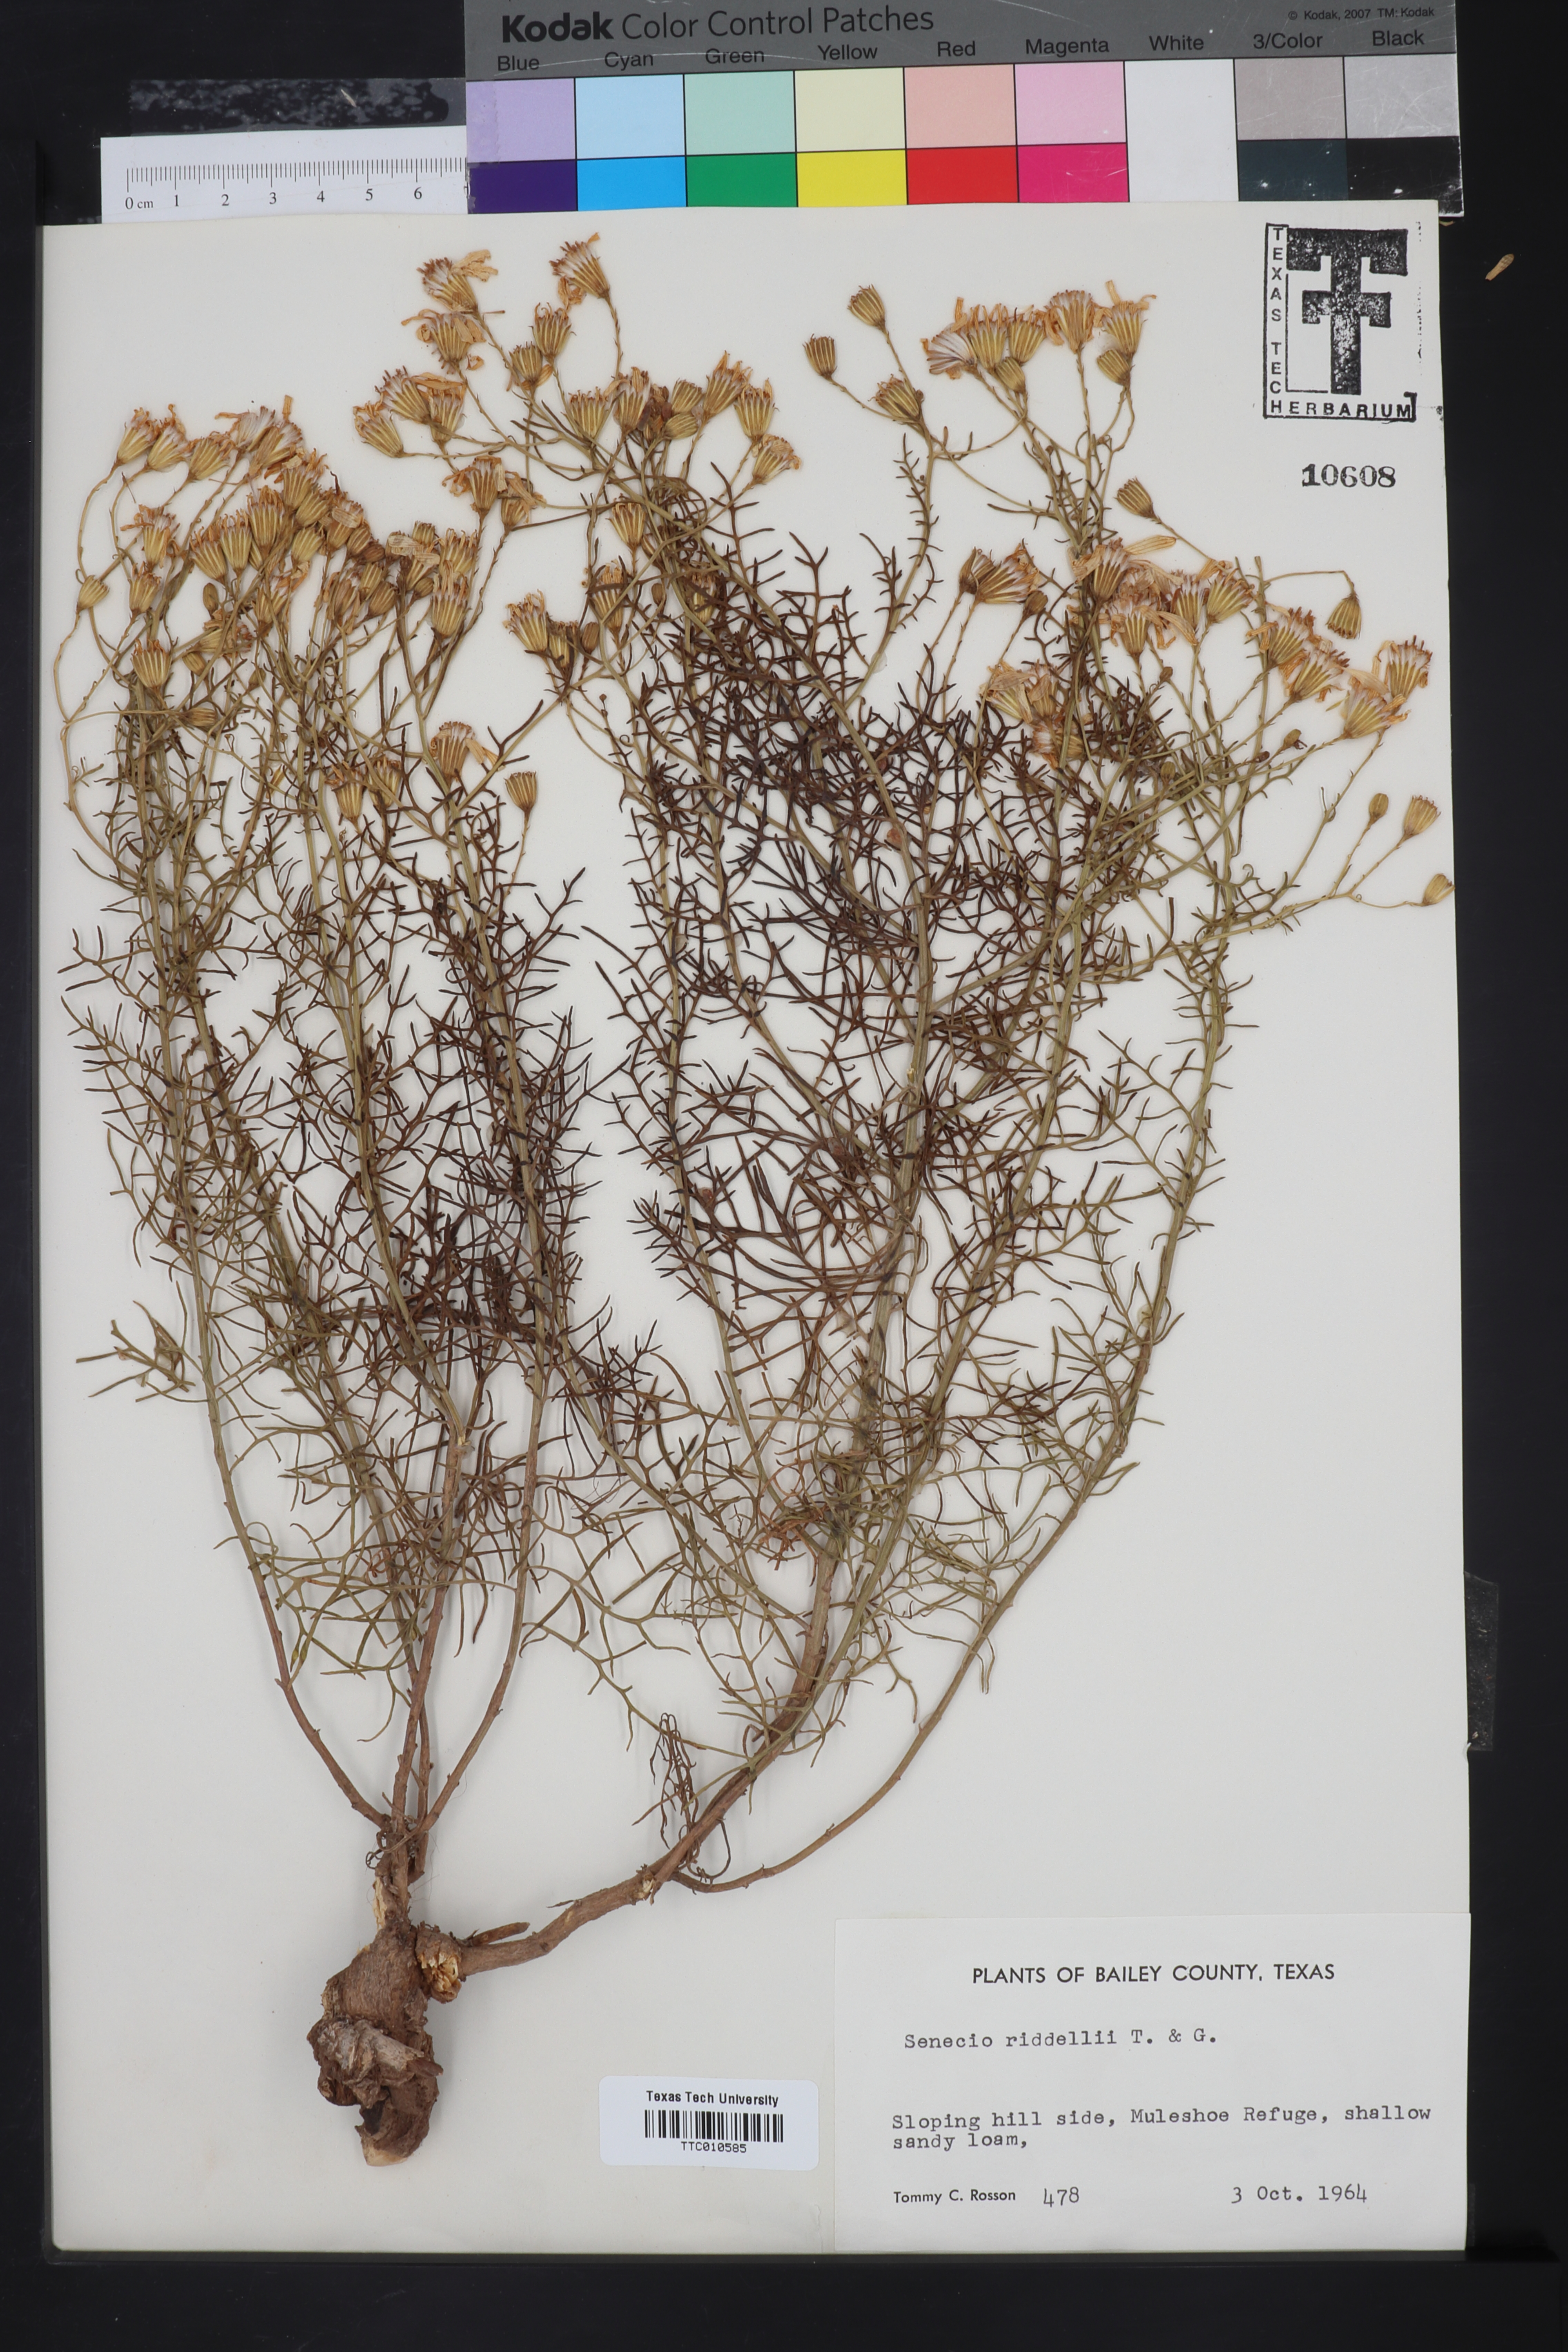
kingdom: Plantae
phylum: Tracheophyta
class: Magnoliopsida
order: Asterales
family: Asteraceae
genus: Senecio
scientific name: Senecio riddellii
